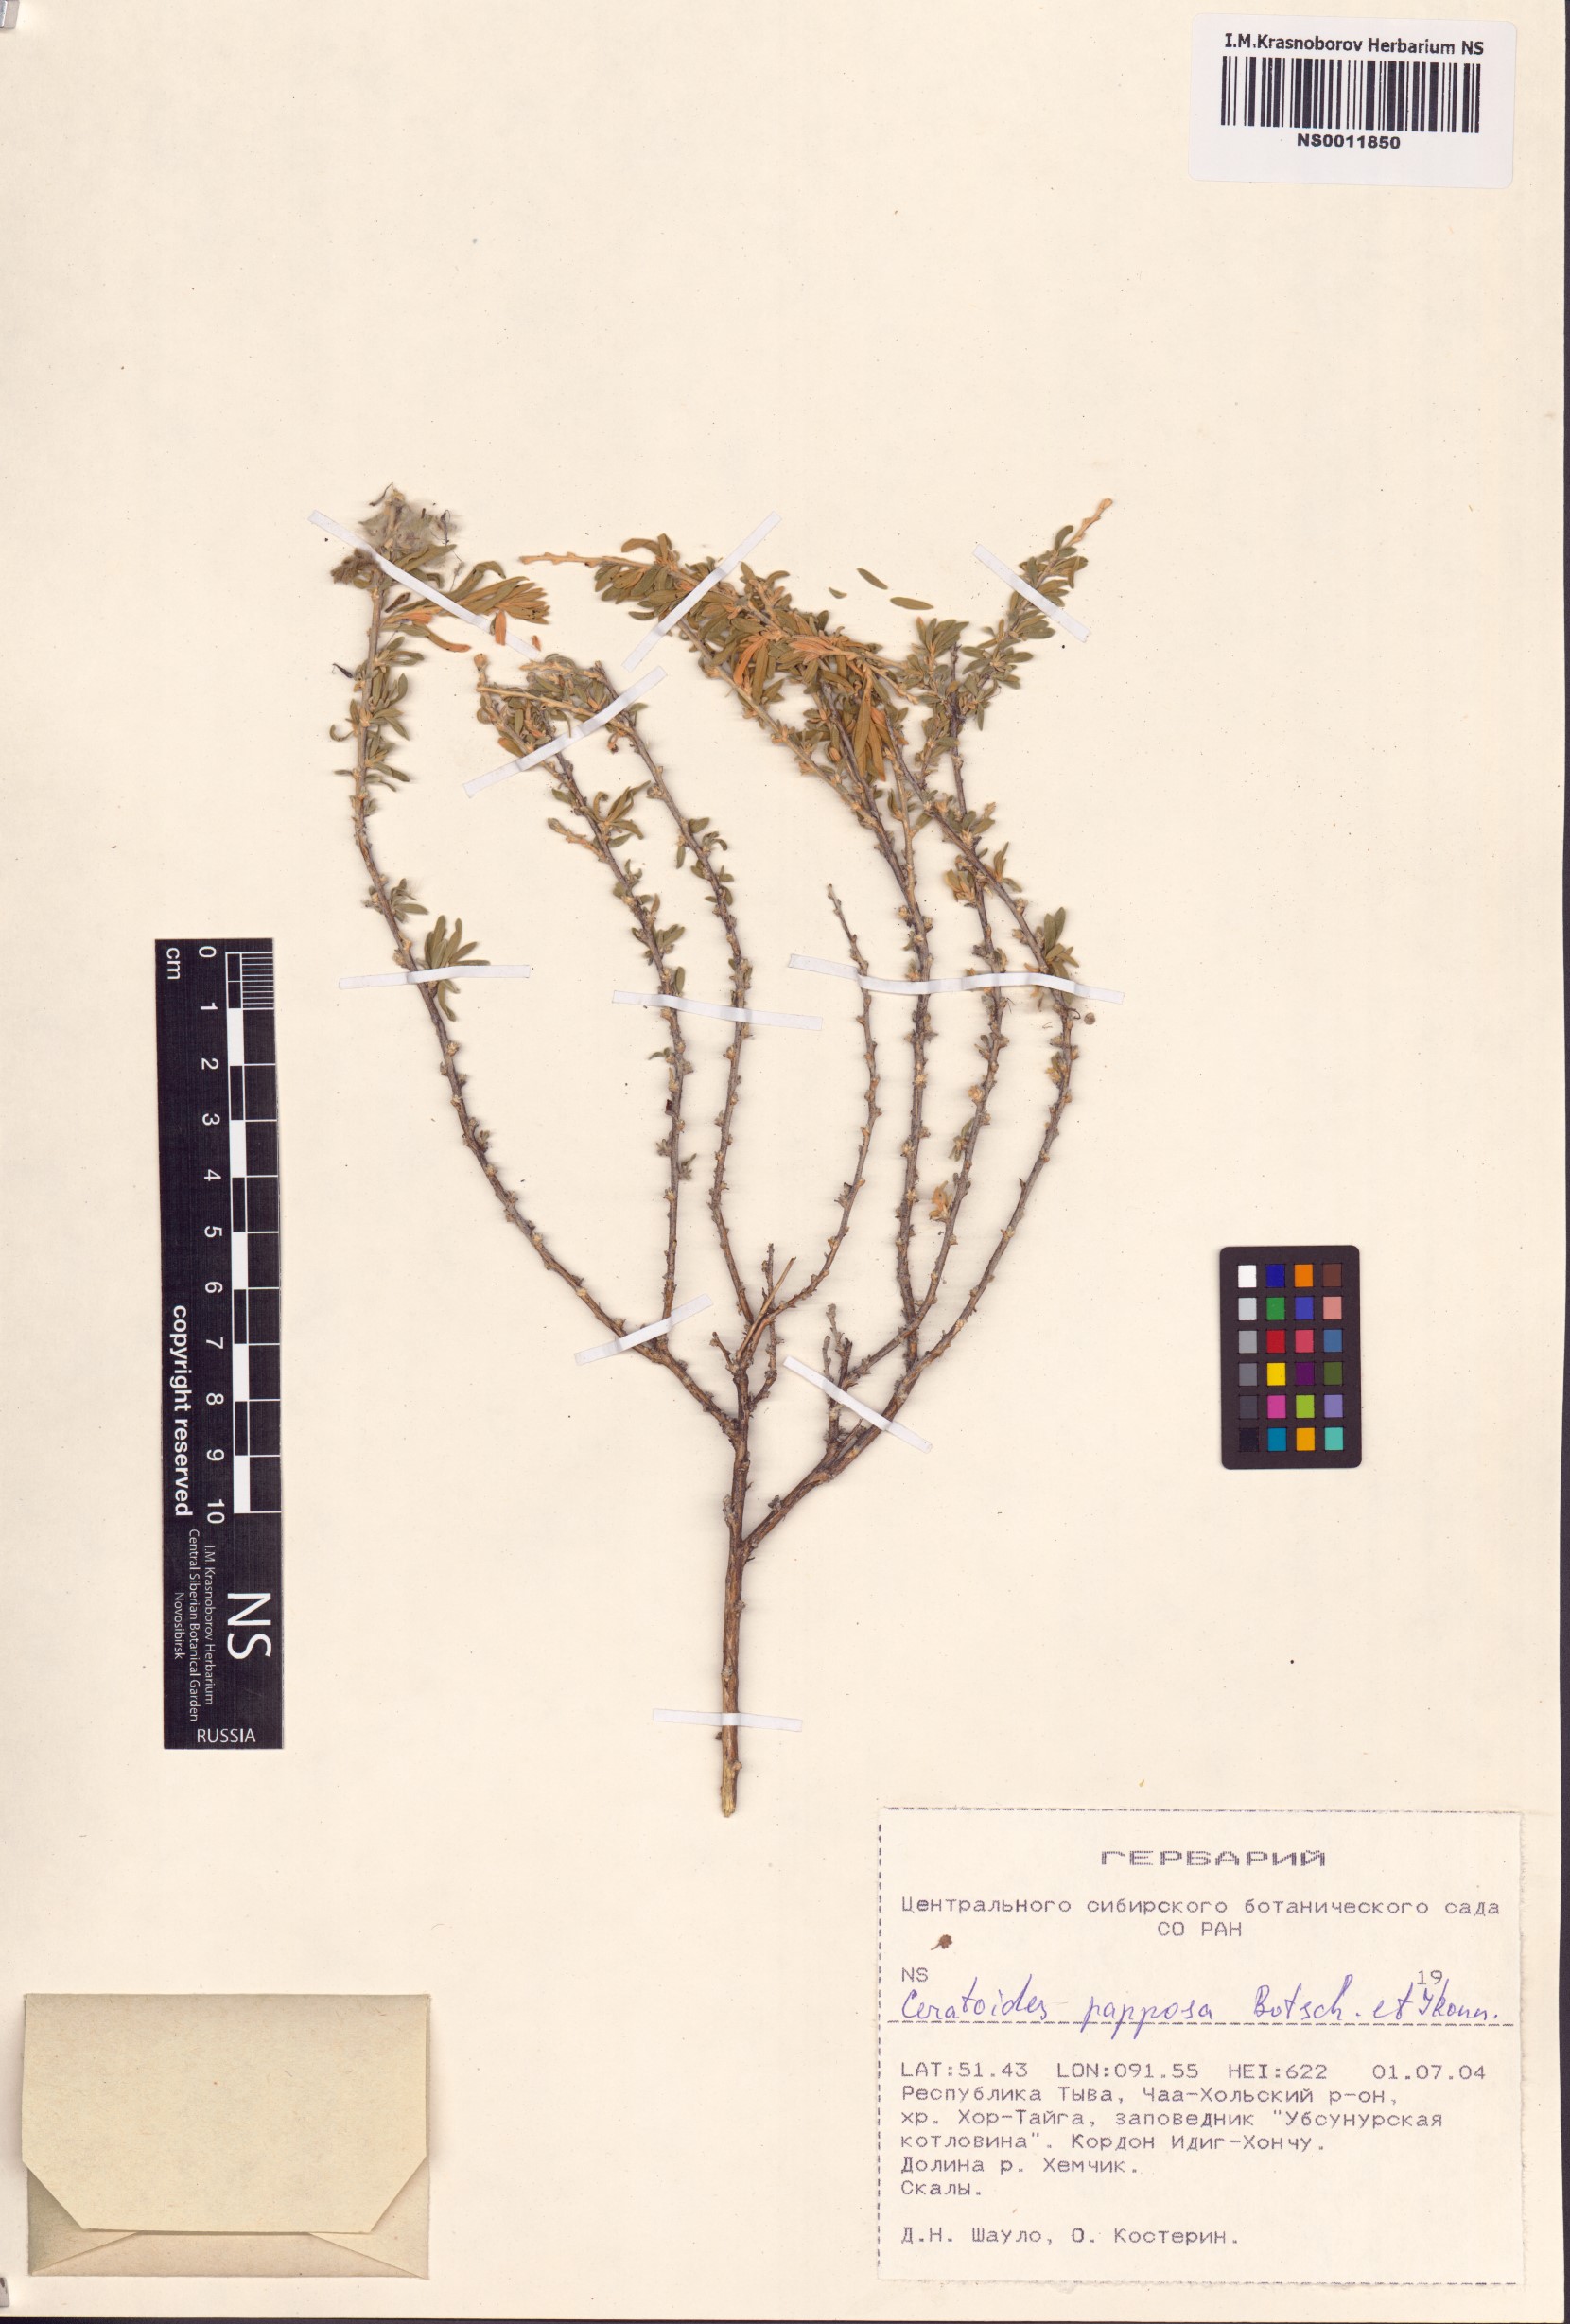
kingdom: Plantae
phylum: Tracheophyta
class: Magnoliopsida
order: Caryophyllales
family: Amaranthaceae
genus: Krascheninnikovia
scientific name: Krascheninnikovia ceratoides
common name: Pamirian winterfat
